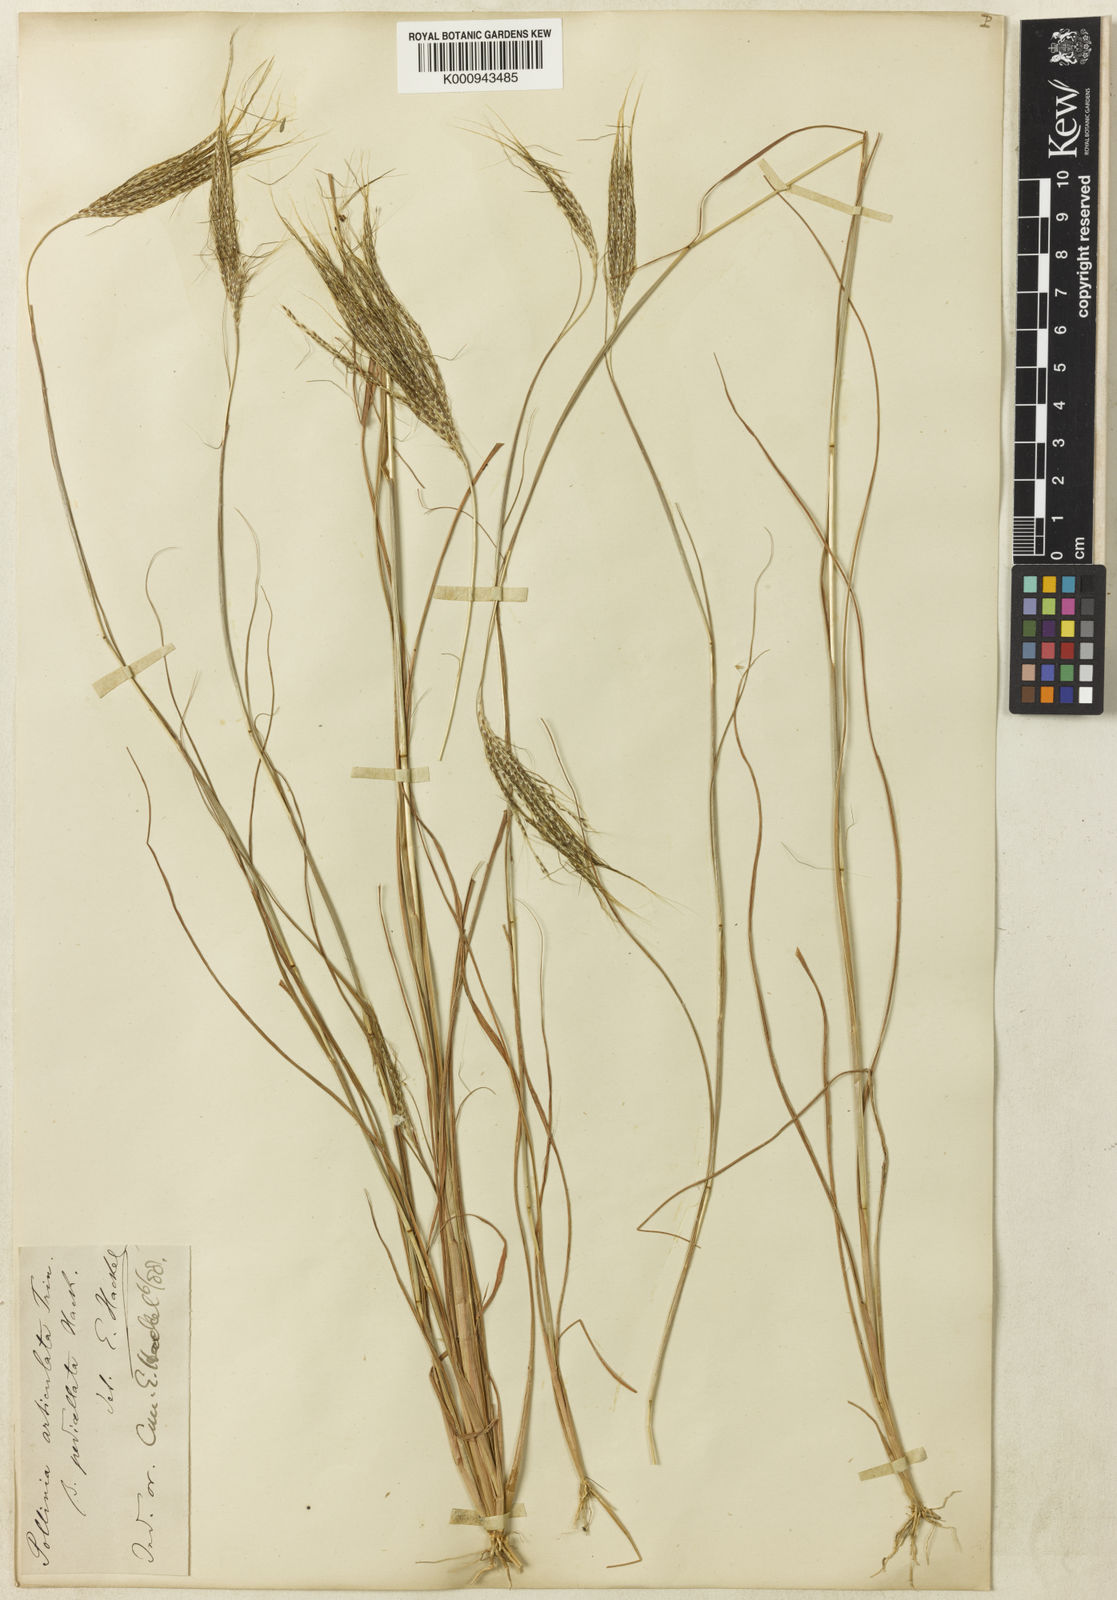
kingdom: Plantae
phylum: Tracheophyta
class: Liliopsida
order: Poales
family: Poaceae
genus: Pseudopogonatherum
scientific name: Pseudopogonatherum contortum
